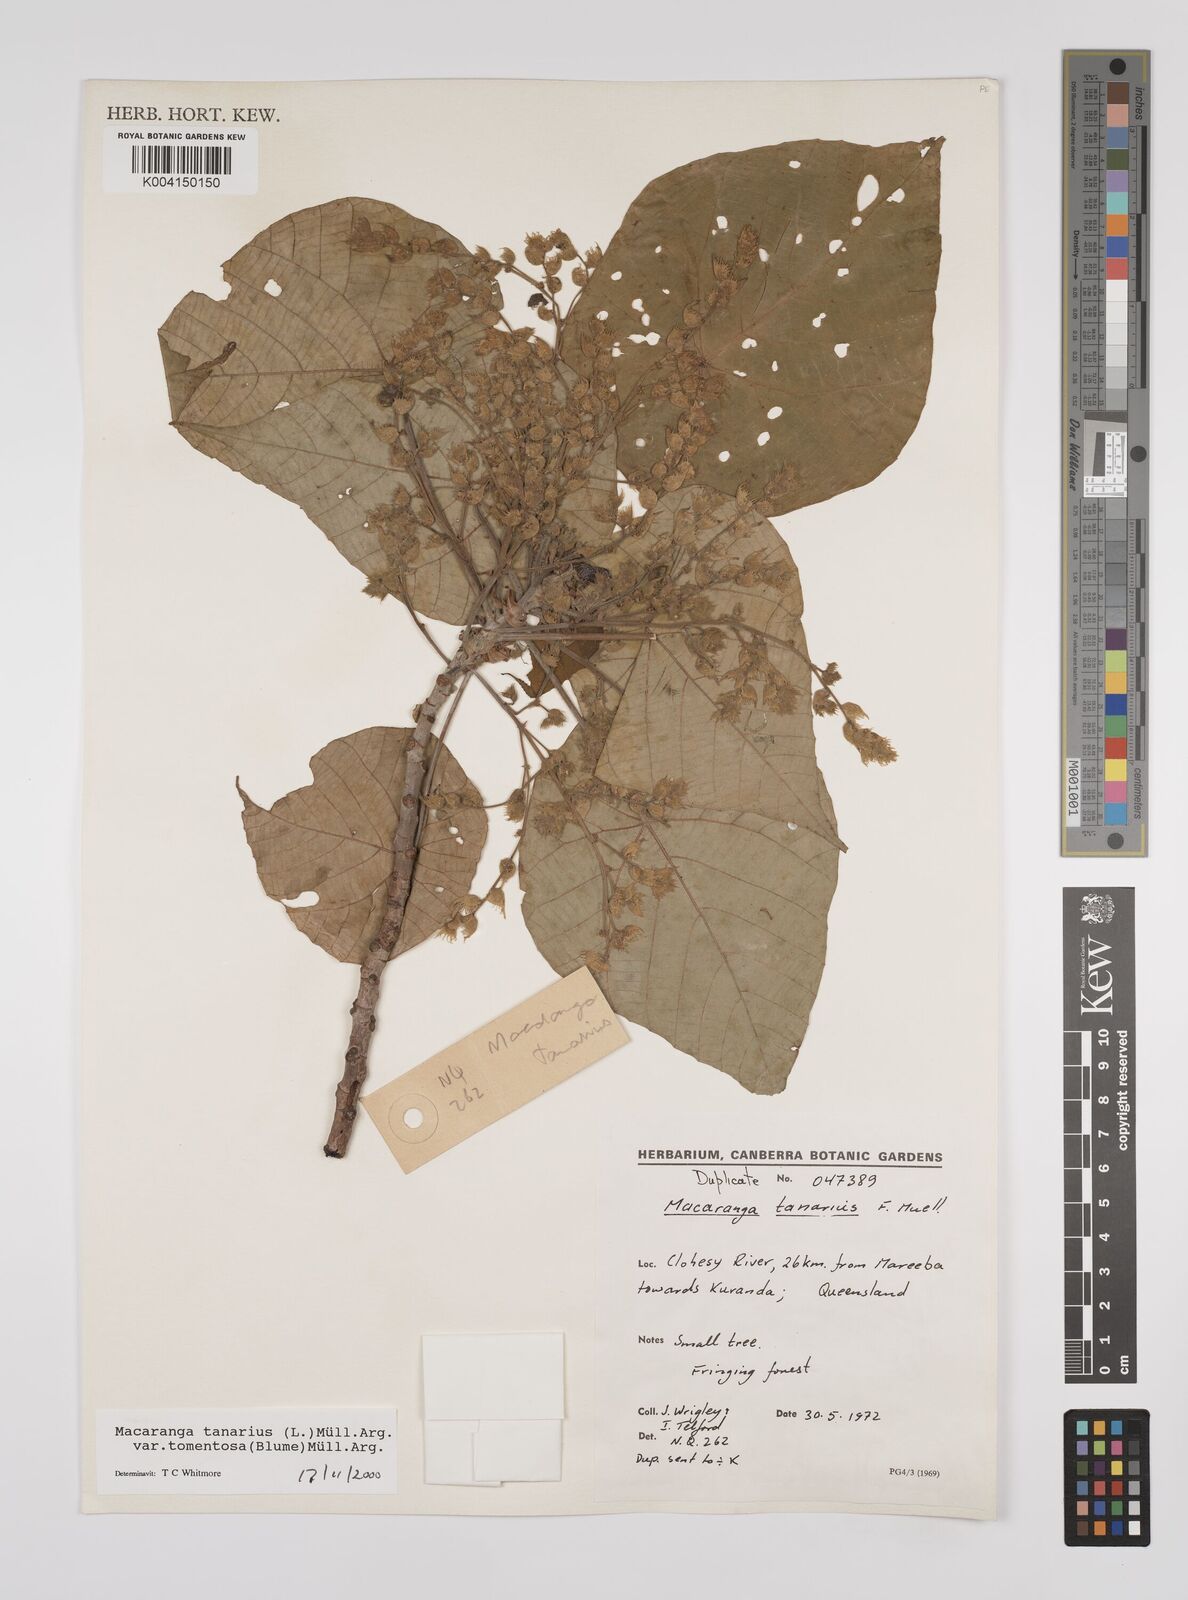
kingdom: Plantae
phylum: Tracheophyta
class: Magnoliopsida
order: Malpighiales
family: Euphorbiaceae
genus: Macaranga
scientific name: Macaranga tanarius
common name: Parasol leaf tree
